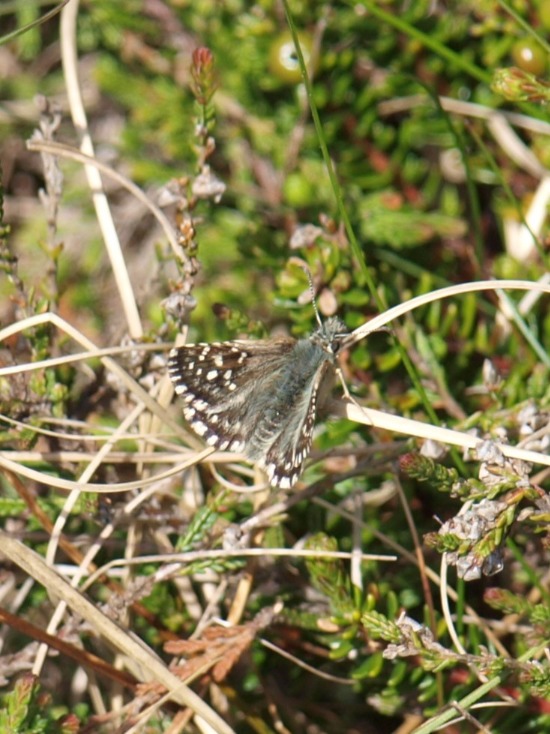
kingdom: Animalia
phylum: Arthropoda
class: Insecta
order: Lepidoptera
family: Hesperiidae
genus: Pyrgus
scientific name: Pyrgus malvae
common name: Spættet bredpande
